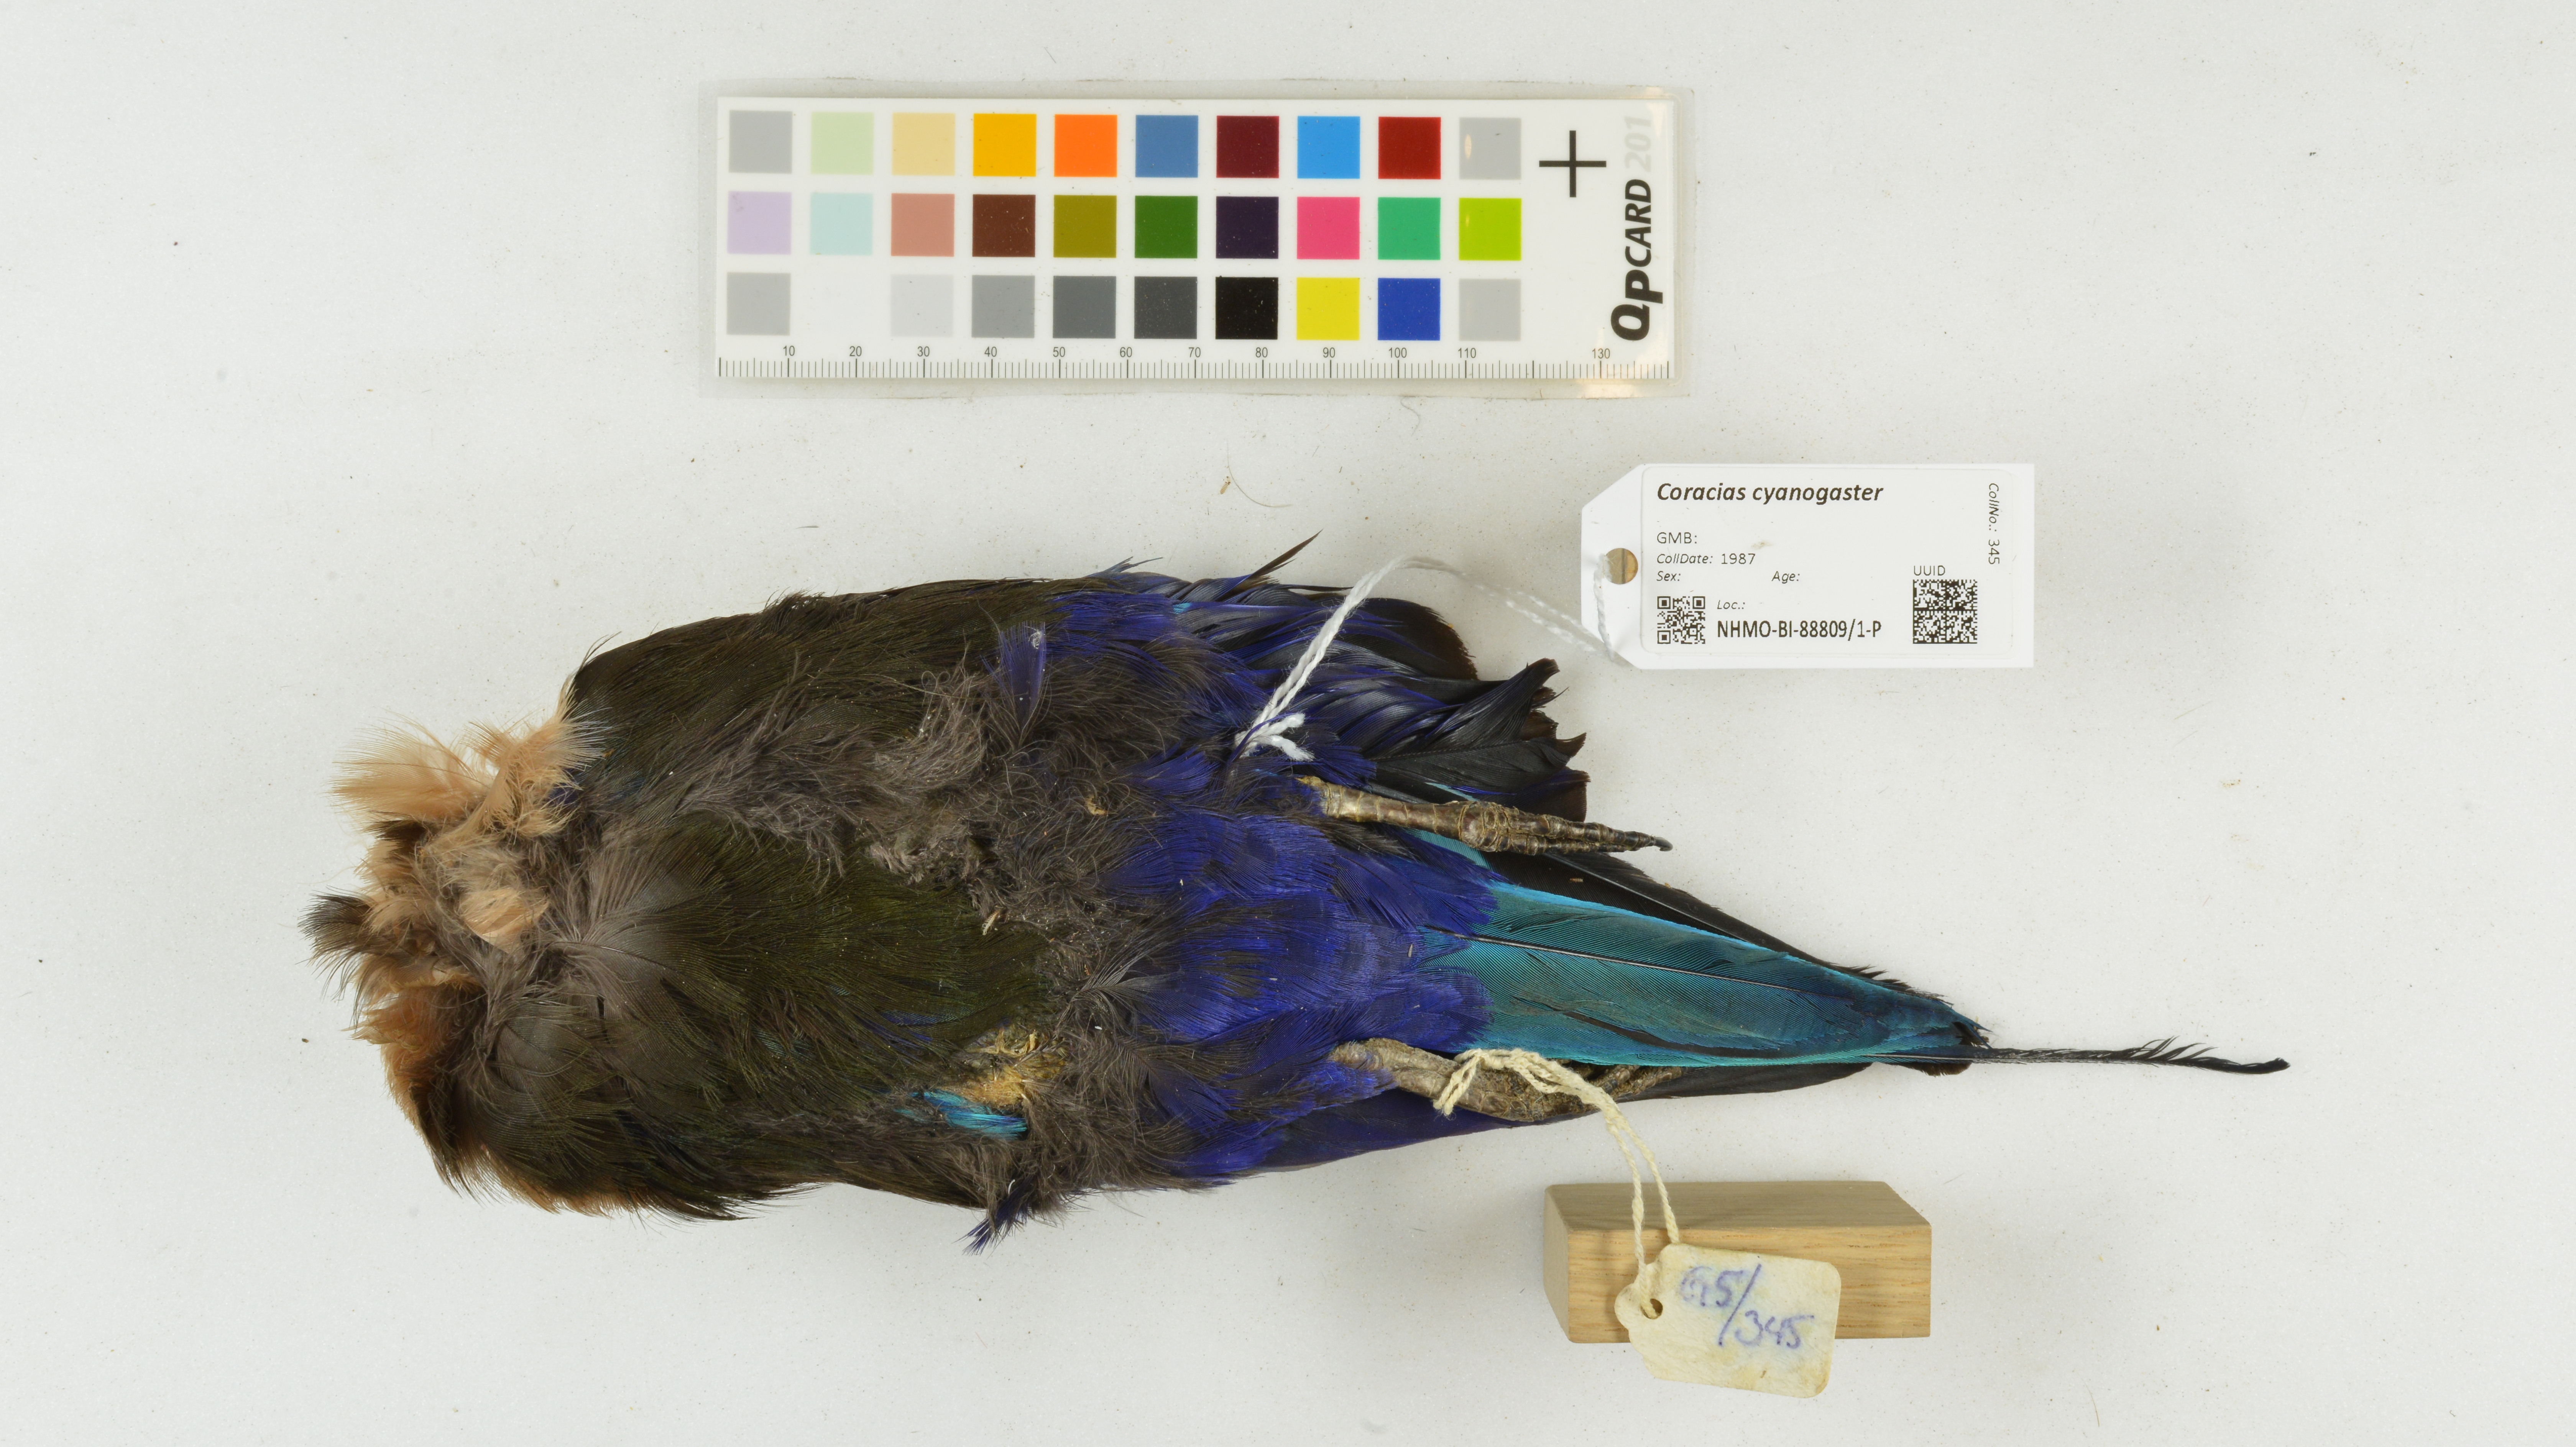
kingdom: Animalia
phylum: Chordata
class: Aves
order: Coraciiformes
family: Coraciidae
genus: Coracias
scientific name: Coracias cyanogaster
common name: Blue-bellied roller
